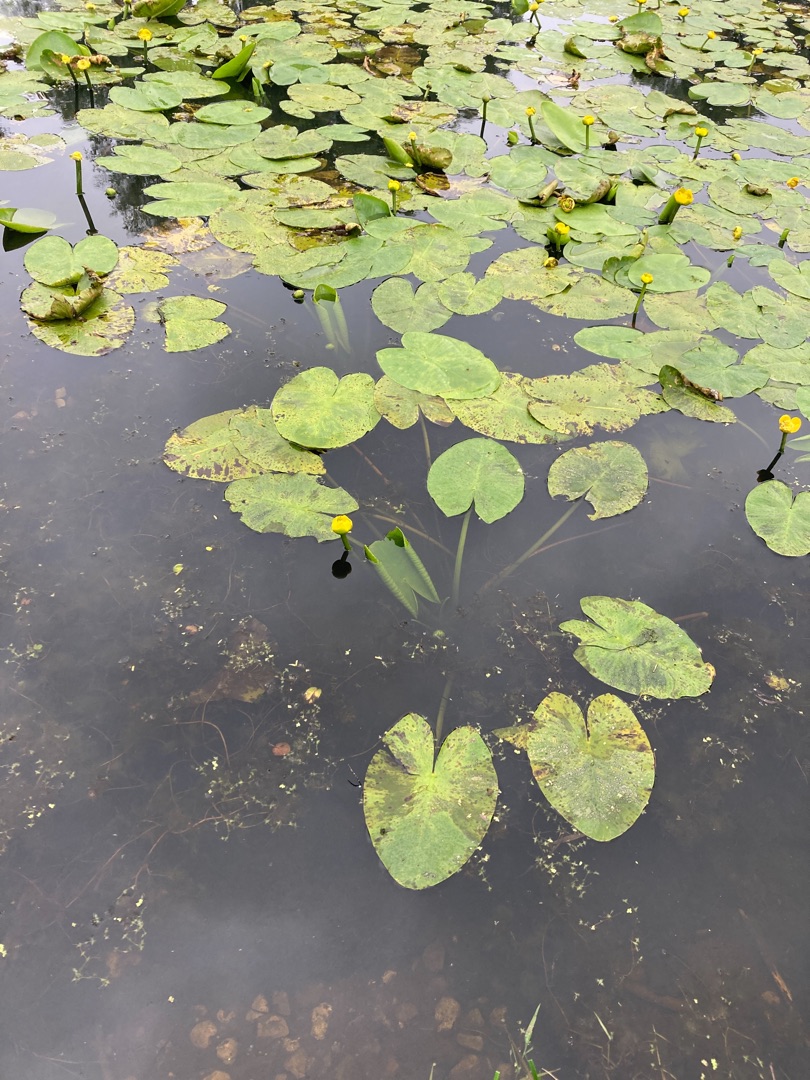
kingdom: Plantae
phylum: Tracheophyta
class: Magnoliopsida
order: Nymphaeales
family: Nymphaeaceae
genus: Nuphar
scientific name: Nuphar lutea
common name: Gul åkande
